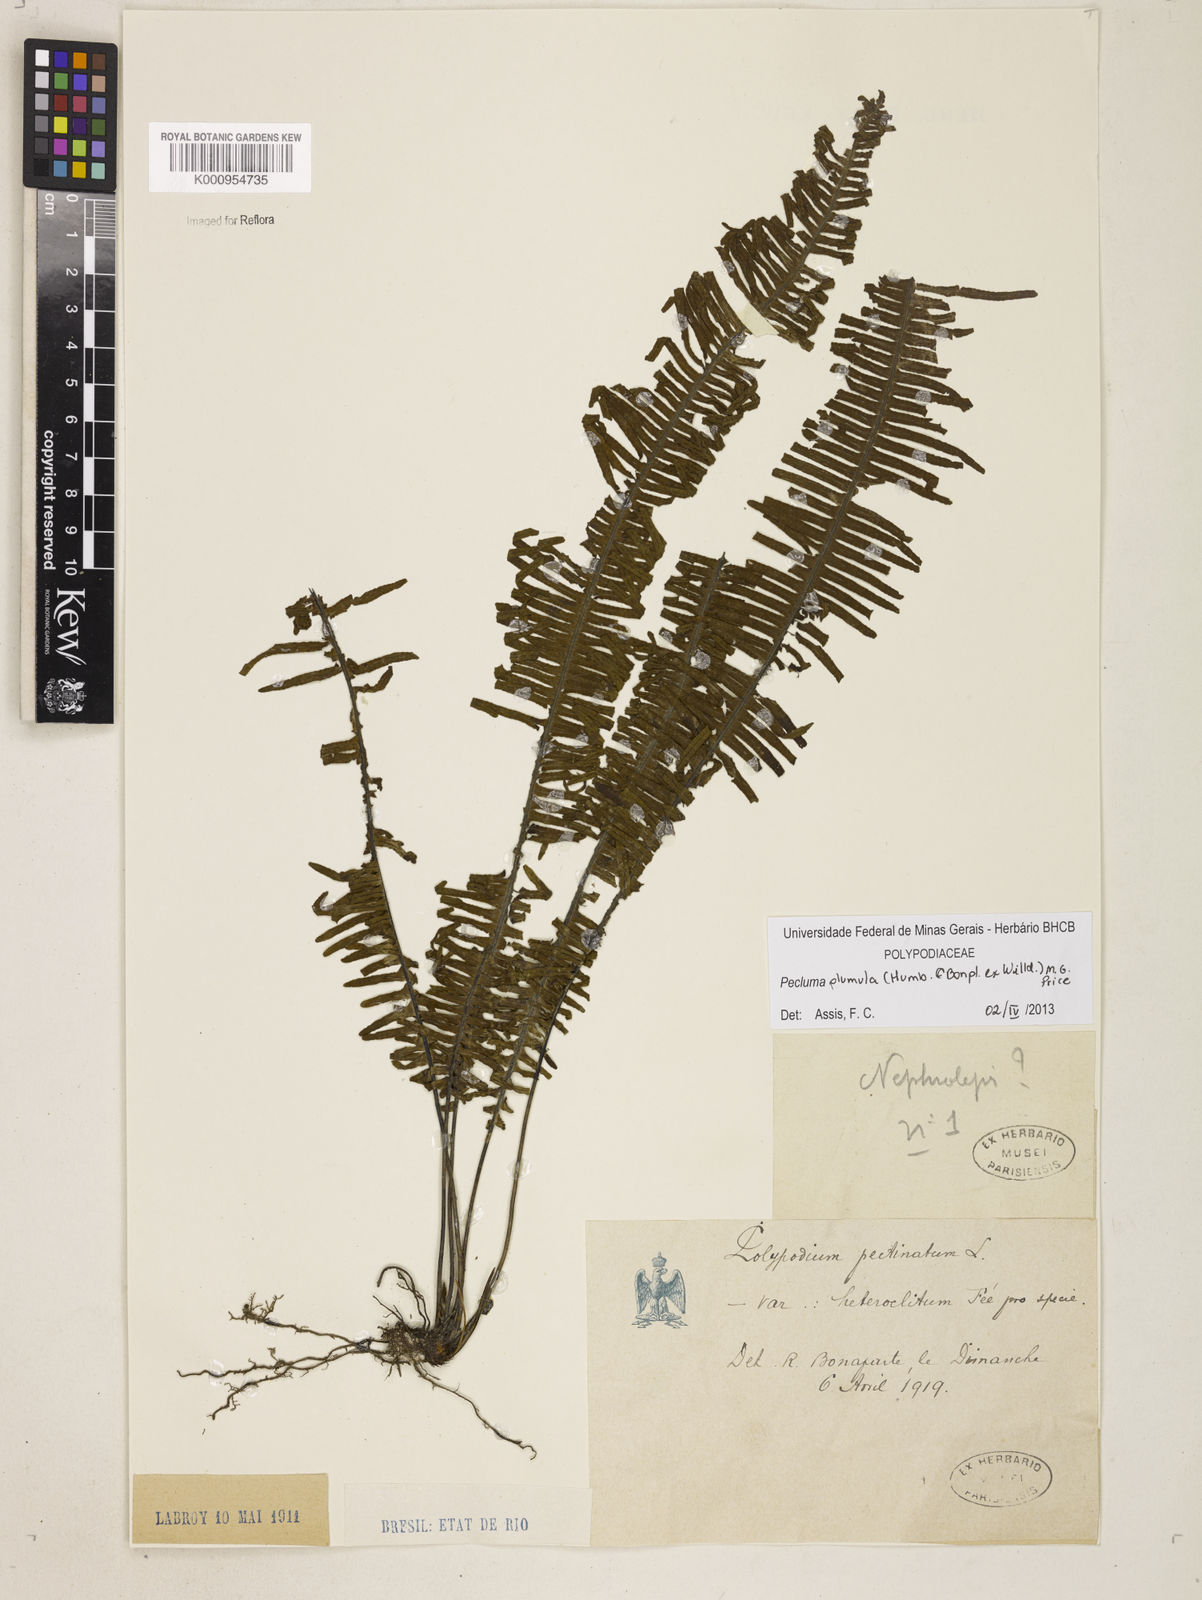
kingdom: Plantae
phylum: Tracheophyta
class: Polypodiopsida
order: Polypodiales
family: Polypodiaceae
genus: Pecluma
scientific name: Pecluma plumula
